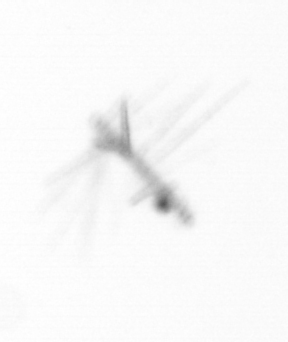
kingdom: Chromista
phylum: Ochrophyta
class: Bacillariophyceae
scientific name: Bacillariophyceae
